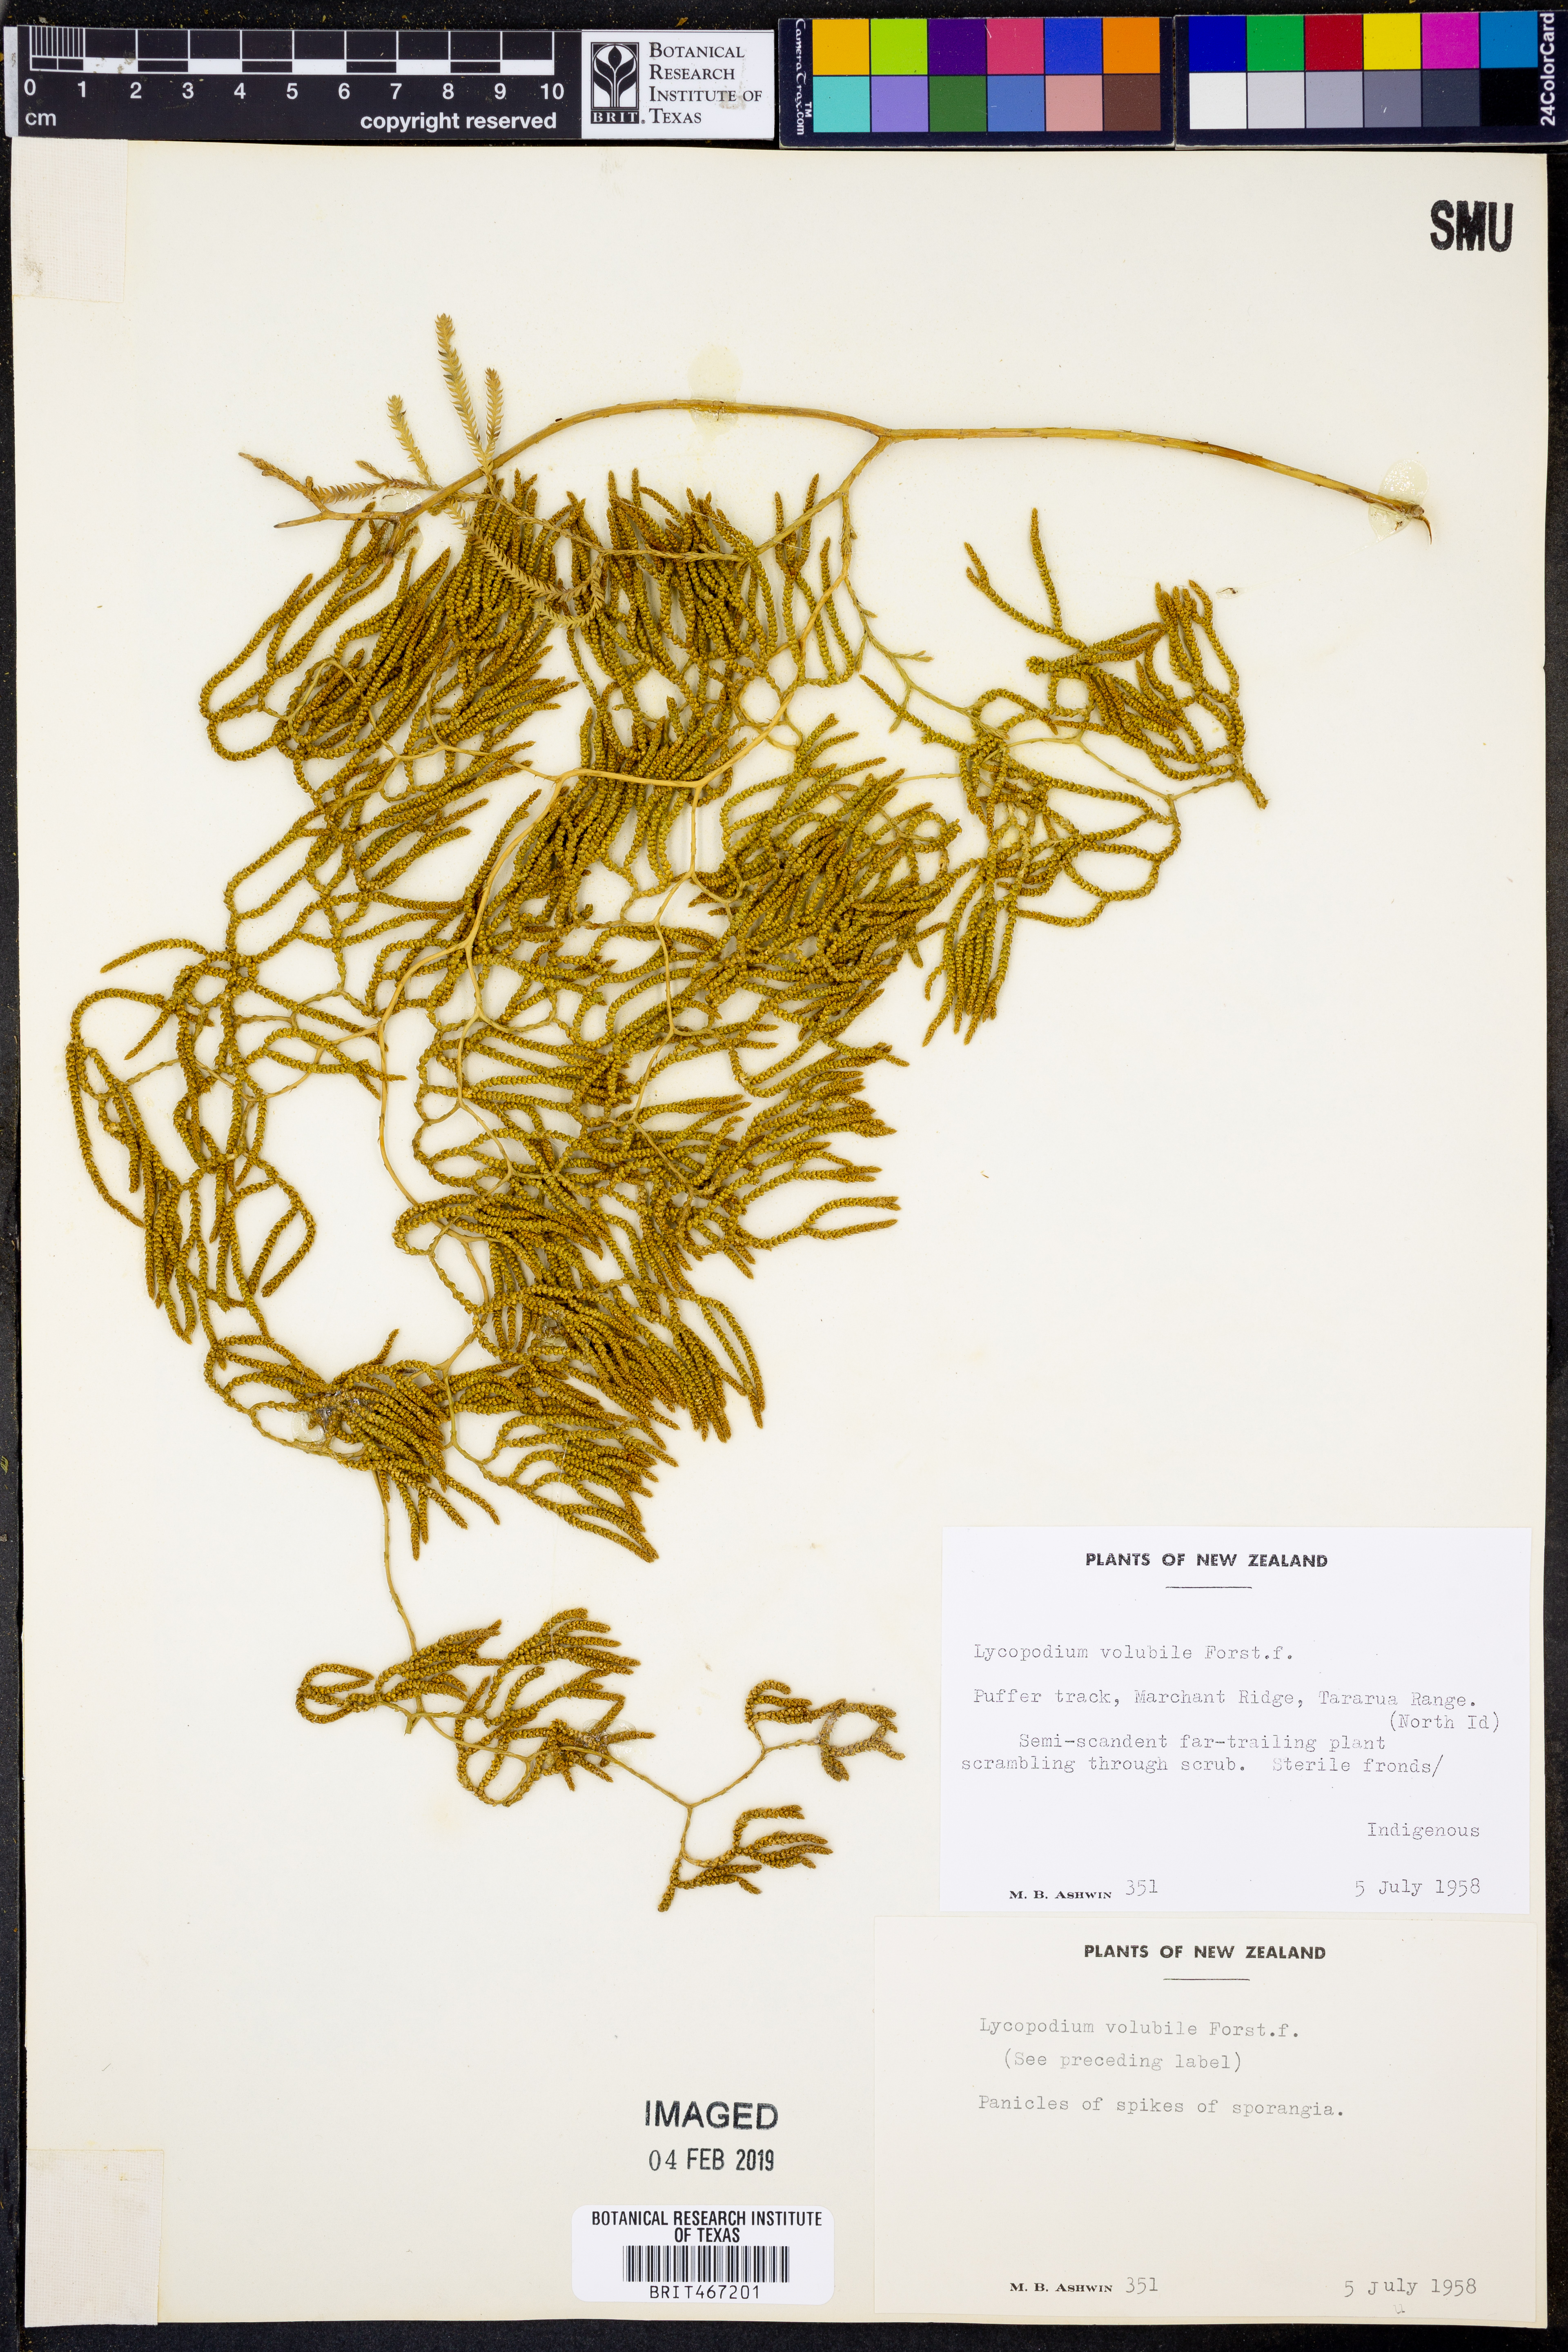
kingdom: Plantae
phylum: Tracheophyta
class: Lycopodiopsida
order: Lycopodiales
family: Lycopodiaceae
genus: Pseudodiphasium
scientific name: Pseudodiphasium volubile
